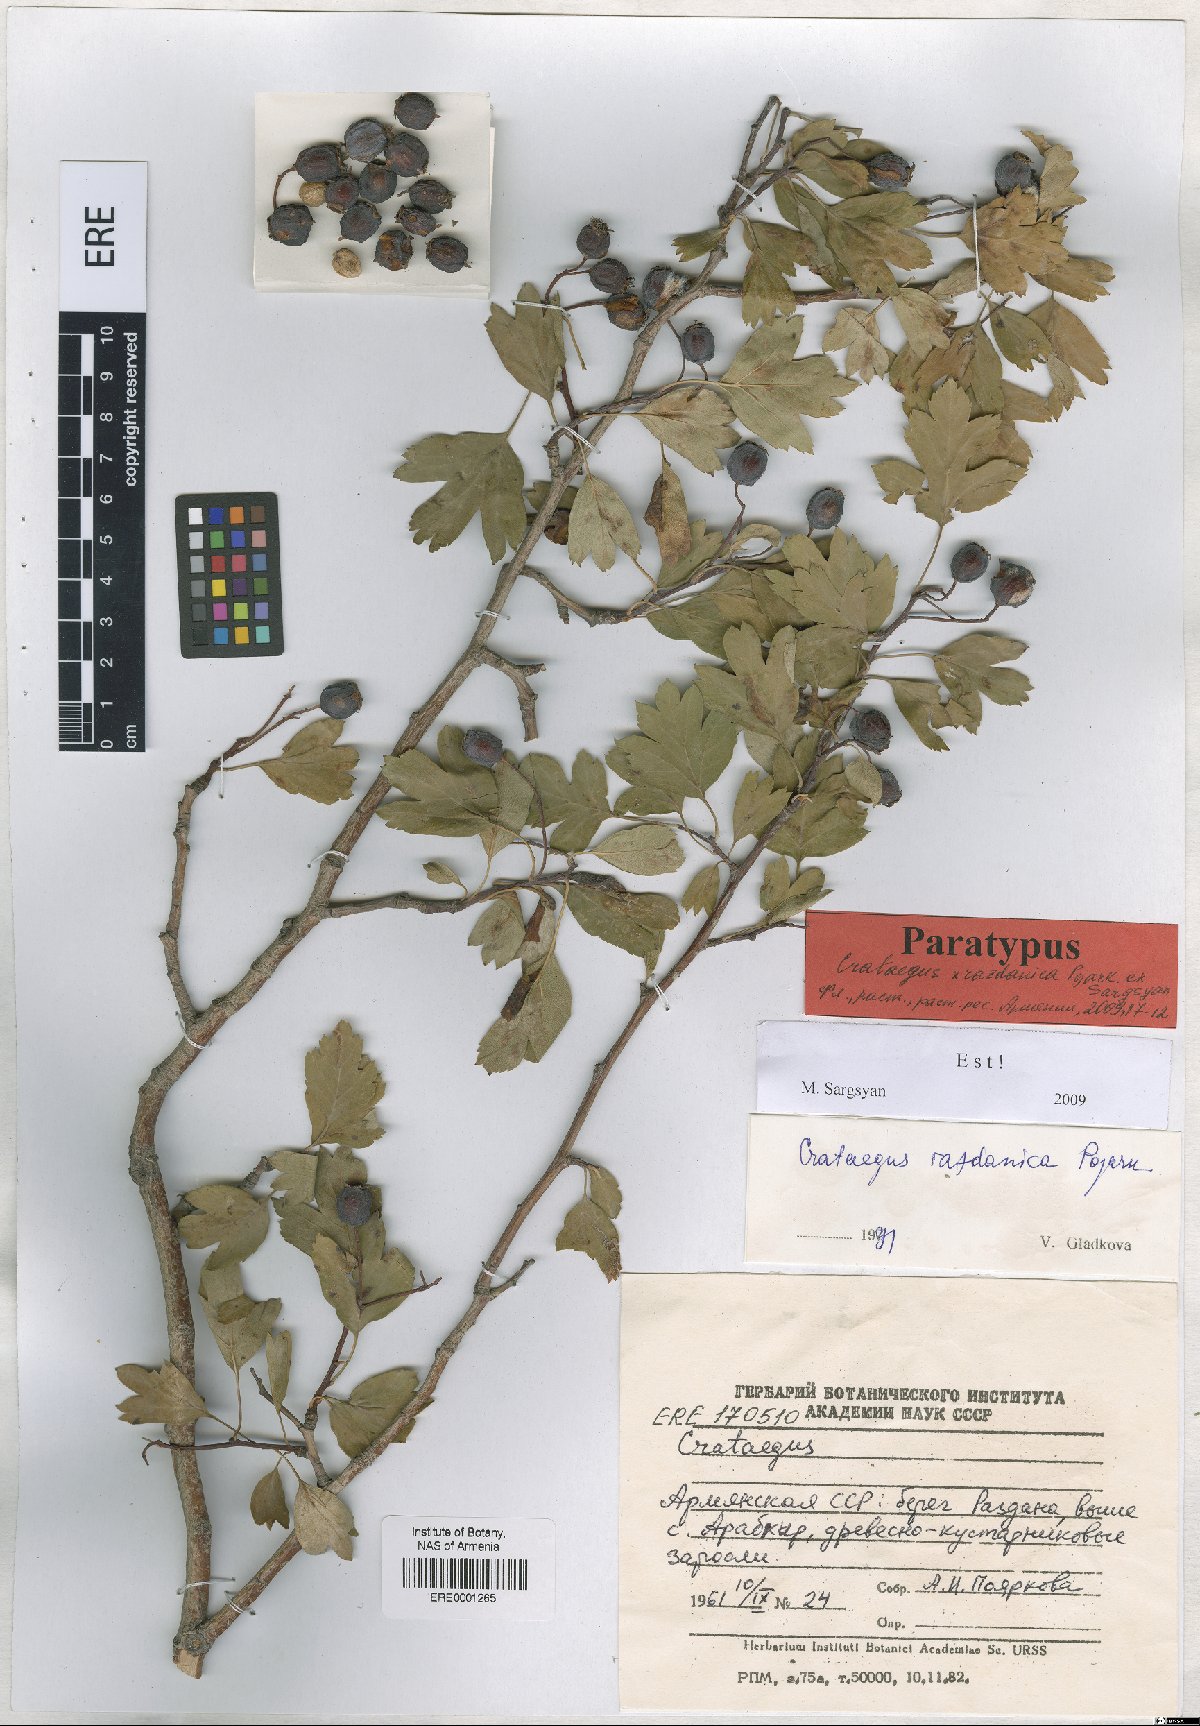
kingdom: Plantae
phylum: Tracheophyta
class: Magnoliopsida
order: Rosales
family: Rosaceae
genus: Crataegus
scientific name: Crataegus
